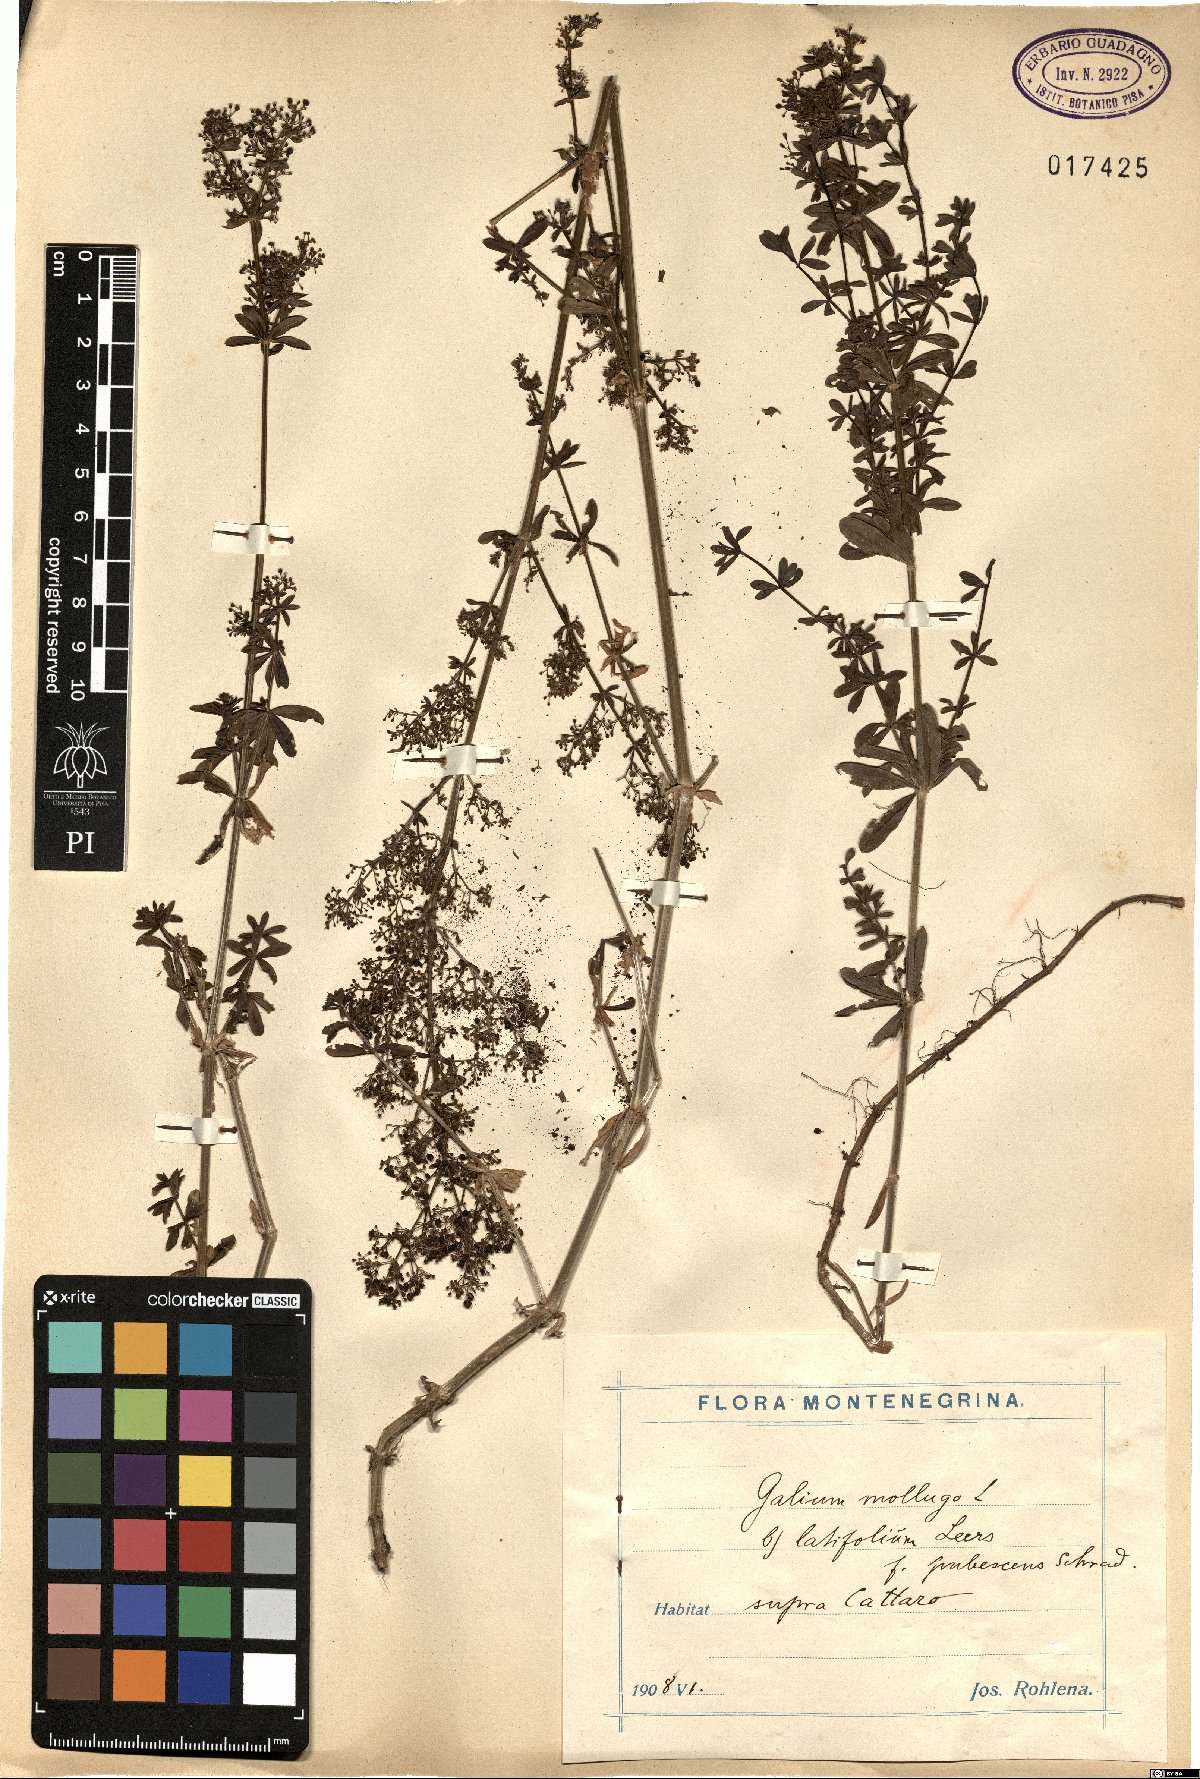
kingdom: Plantae
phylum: Tracheophyta
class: Magnoliopsida
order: Gentianales
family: Rubiaceae
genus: Galium
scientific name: Galium
